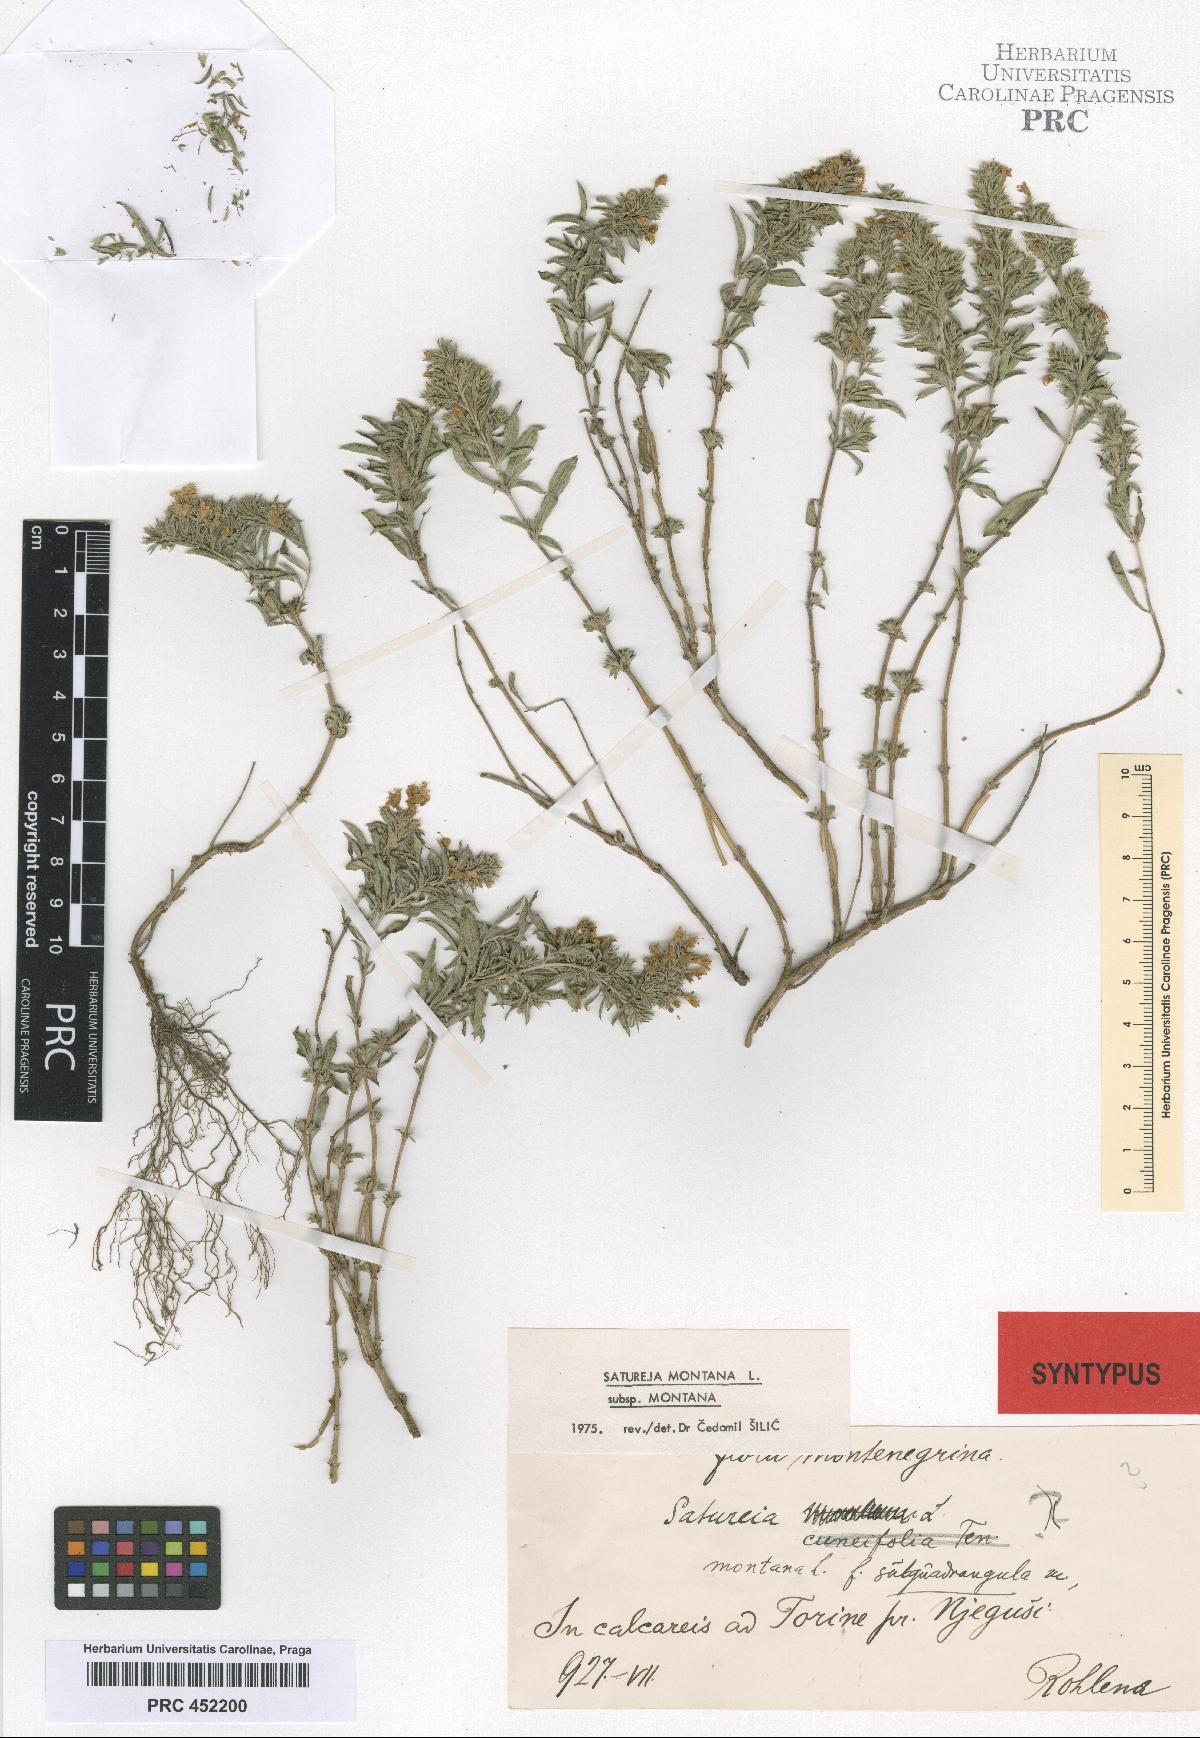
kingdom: Plantae
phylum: Tracheophyta
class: Magnoliopsida
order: Lamiales
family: Lamiaceae
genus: Satureja
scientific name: Satureja montana
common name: Winter savory
